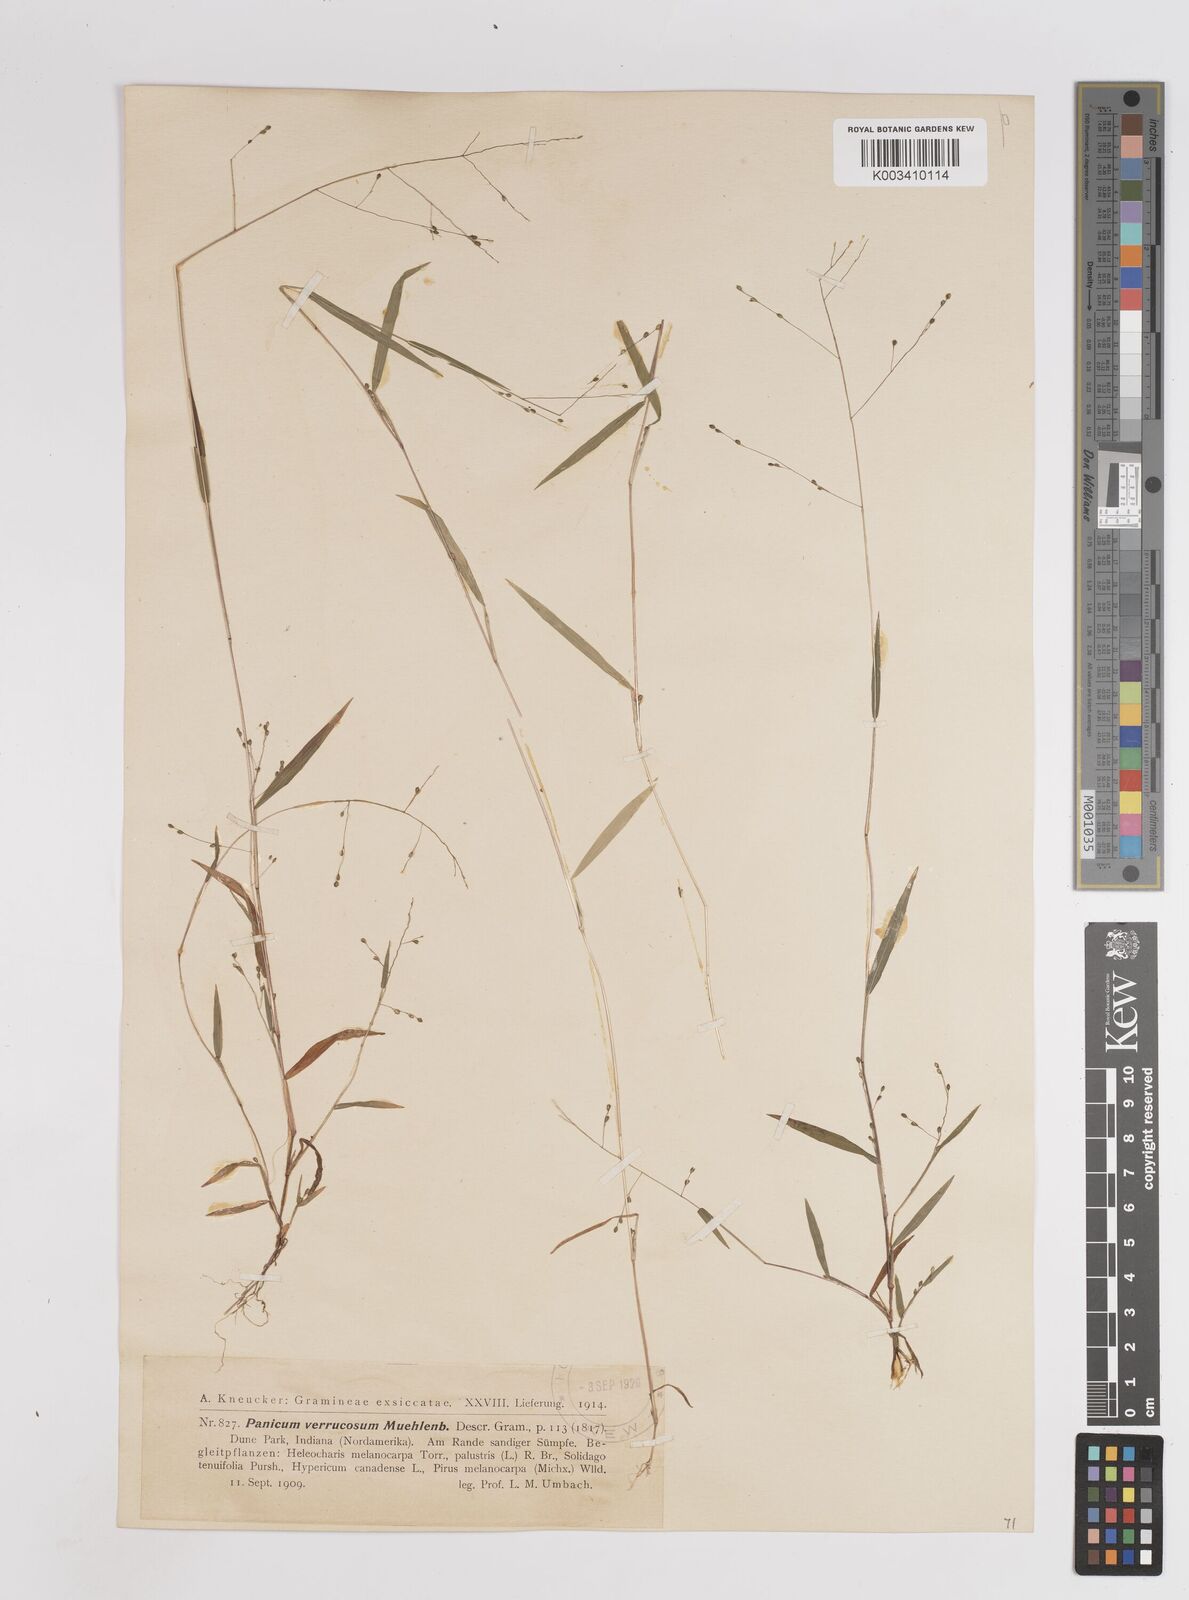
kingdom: Plantae
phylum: Tracheophyta
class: Liliopsida
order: Poales
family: Poaceae
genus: Kellochloa
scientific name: Kellochloa verrucosa
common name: Warty panic grass
